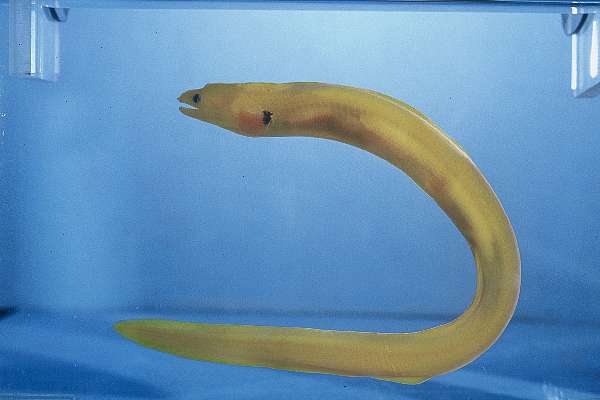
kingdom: Animalia
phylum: Chordata
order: Anguilliformes
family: Muraenidae
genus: Gymnothorax
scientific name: Gymnothorax melatremus
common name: Dwarf moray
